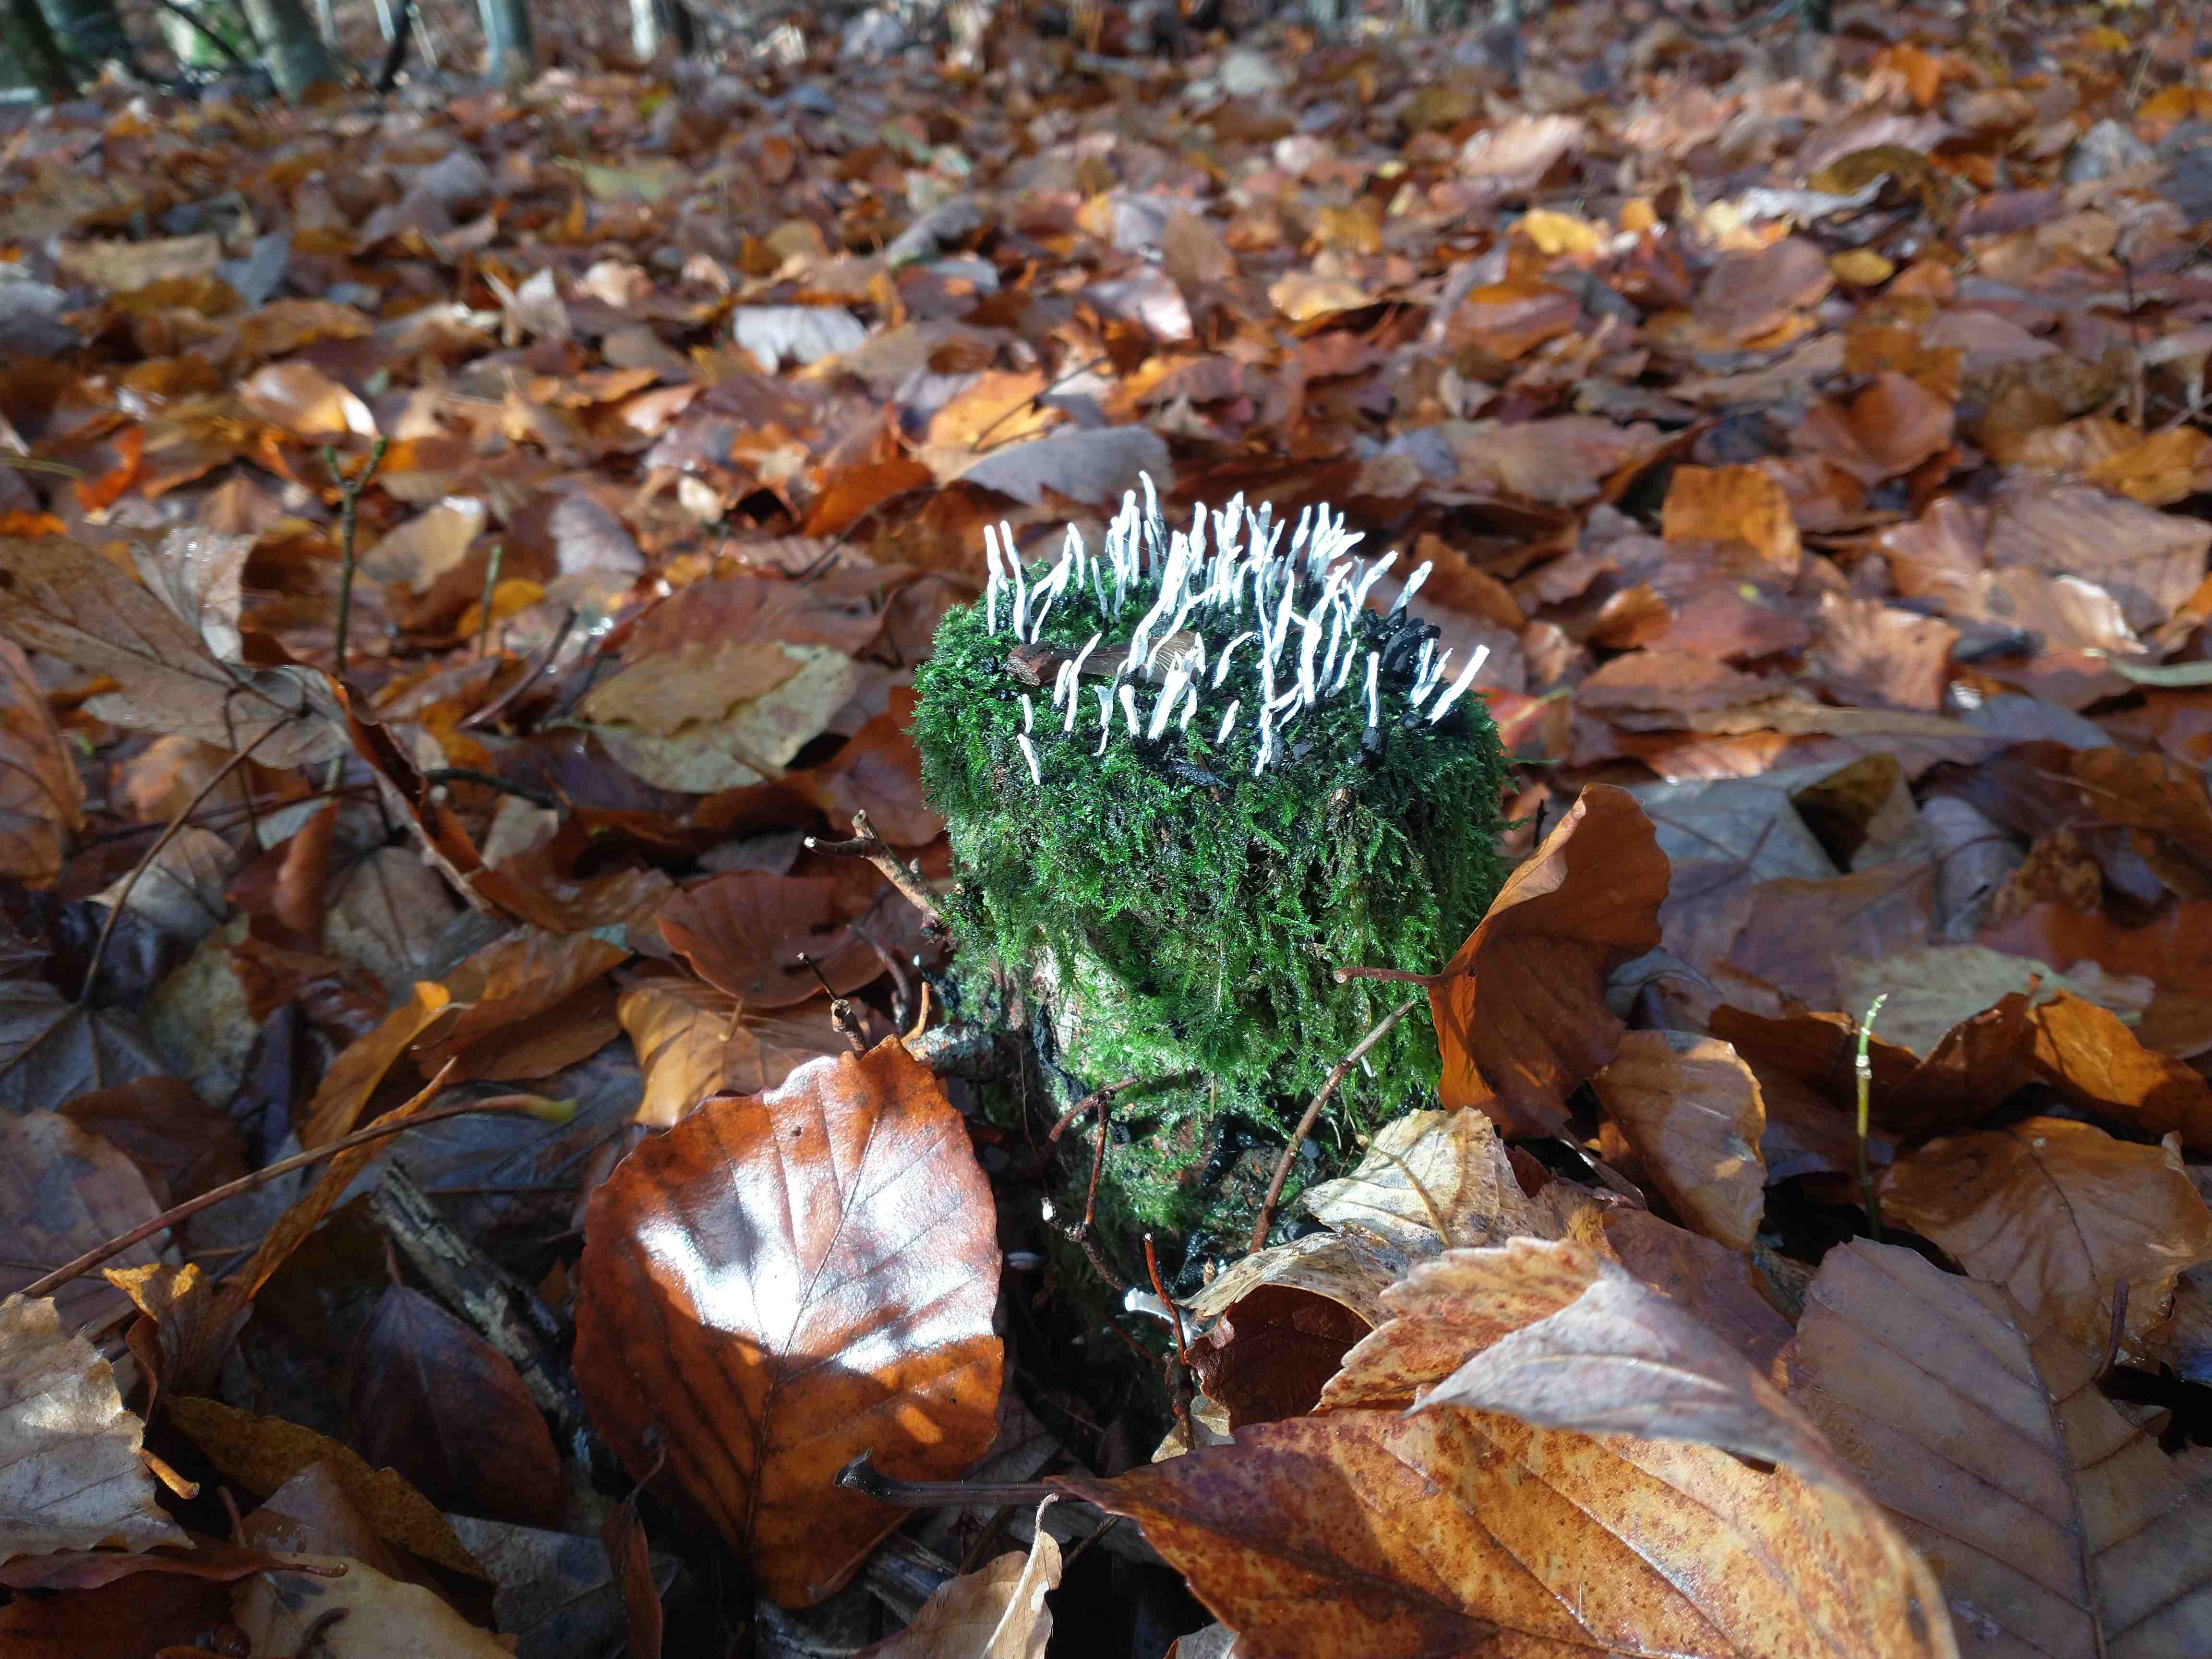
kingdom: Fungi
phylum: Ascomycota
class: Sordariomycetes
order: Xylariales
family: Xylariaceae
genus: Xylaria
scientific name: Xylaria hypoxylon
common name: grenet stødsvamp
